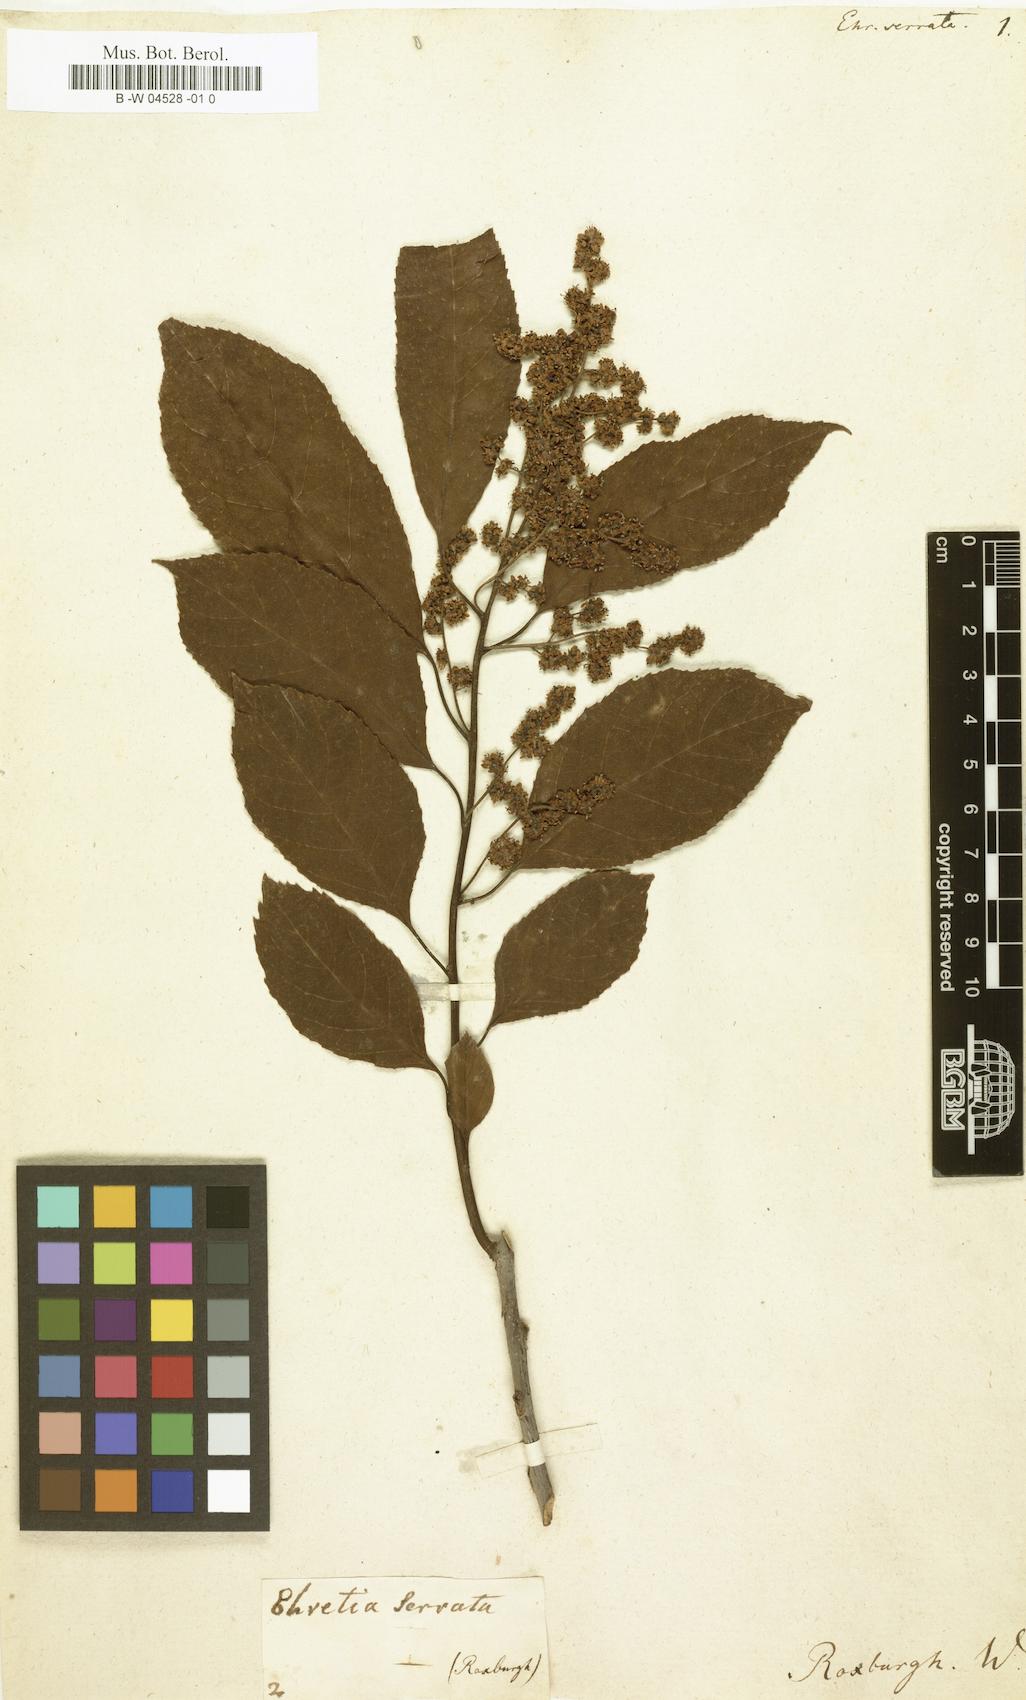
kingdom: Plantae
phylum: Tracheophyta
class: Magnoliopsida
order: Boraginales
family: Ehretiaceae
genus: Ehretia
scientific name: Ehretia acuminata
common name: Kodo wood
